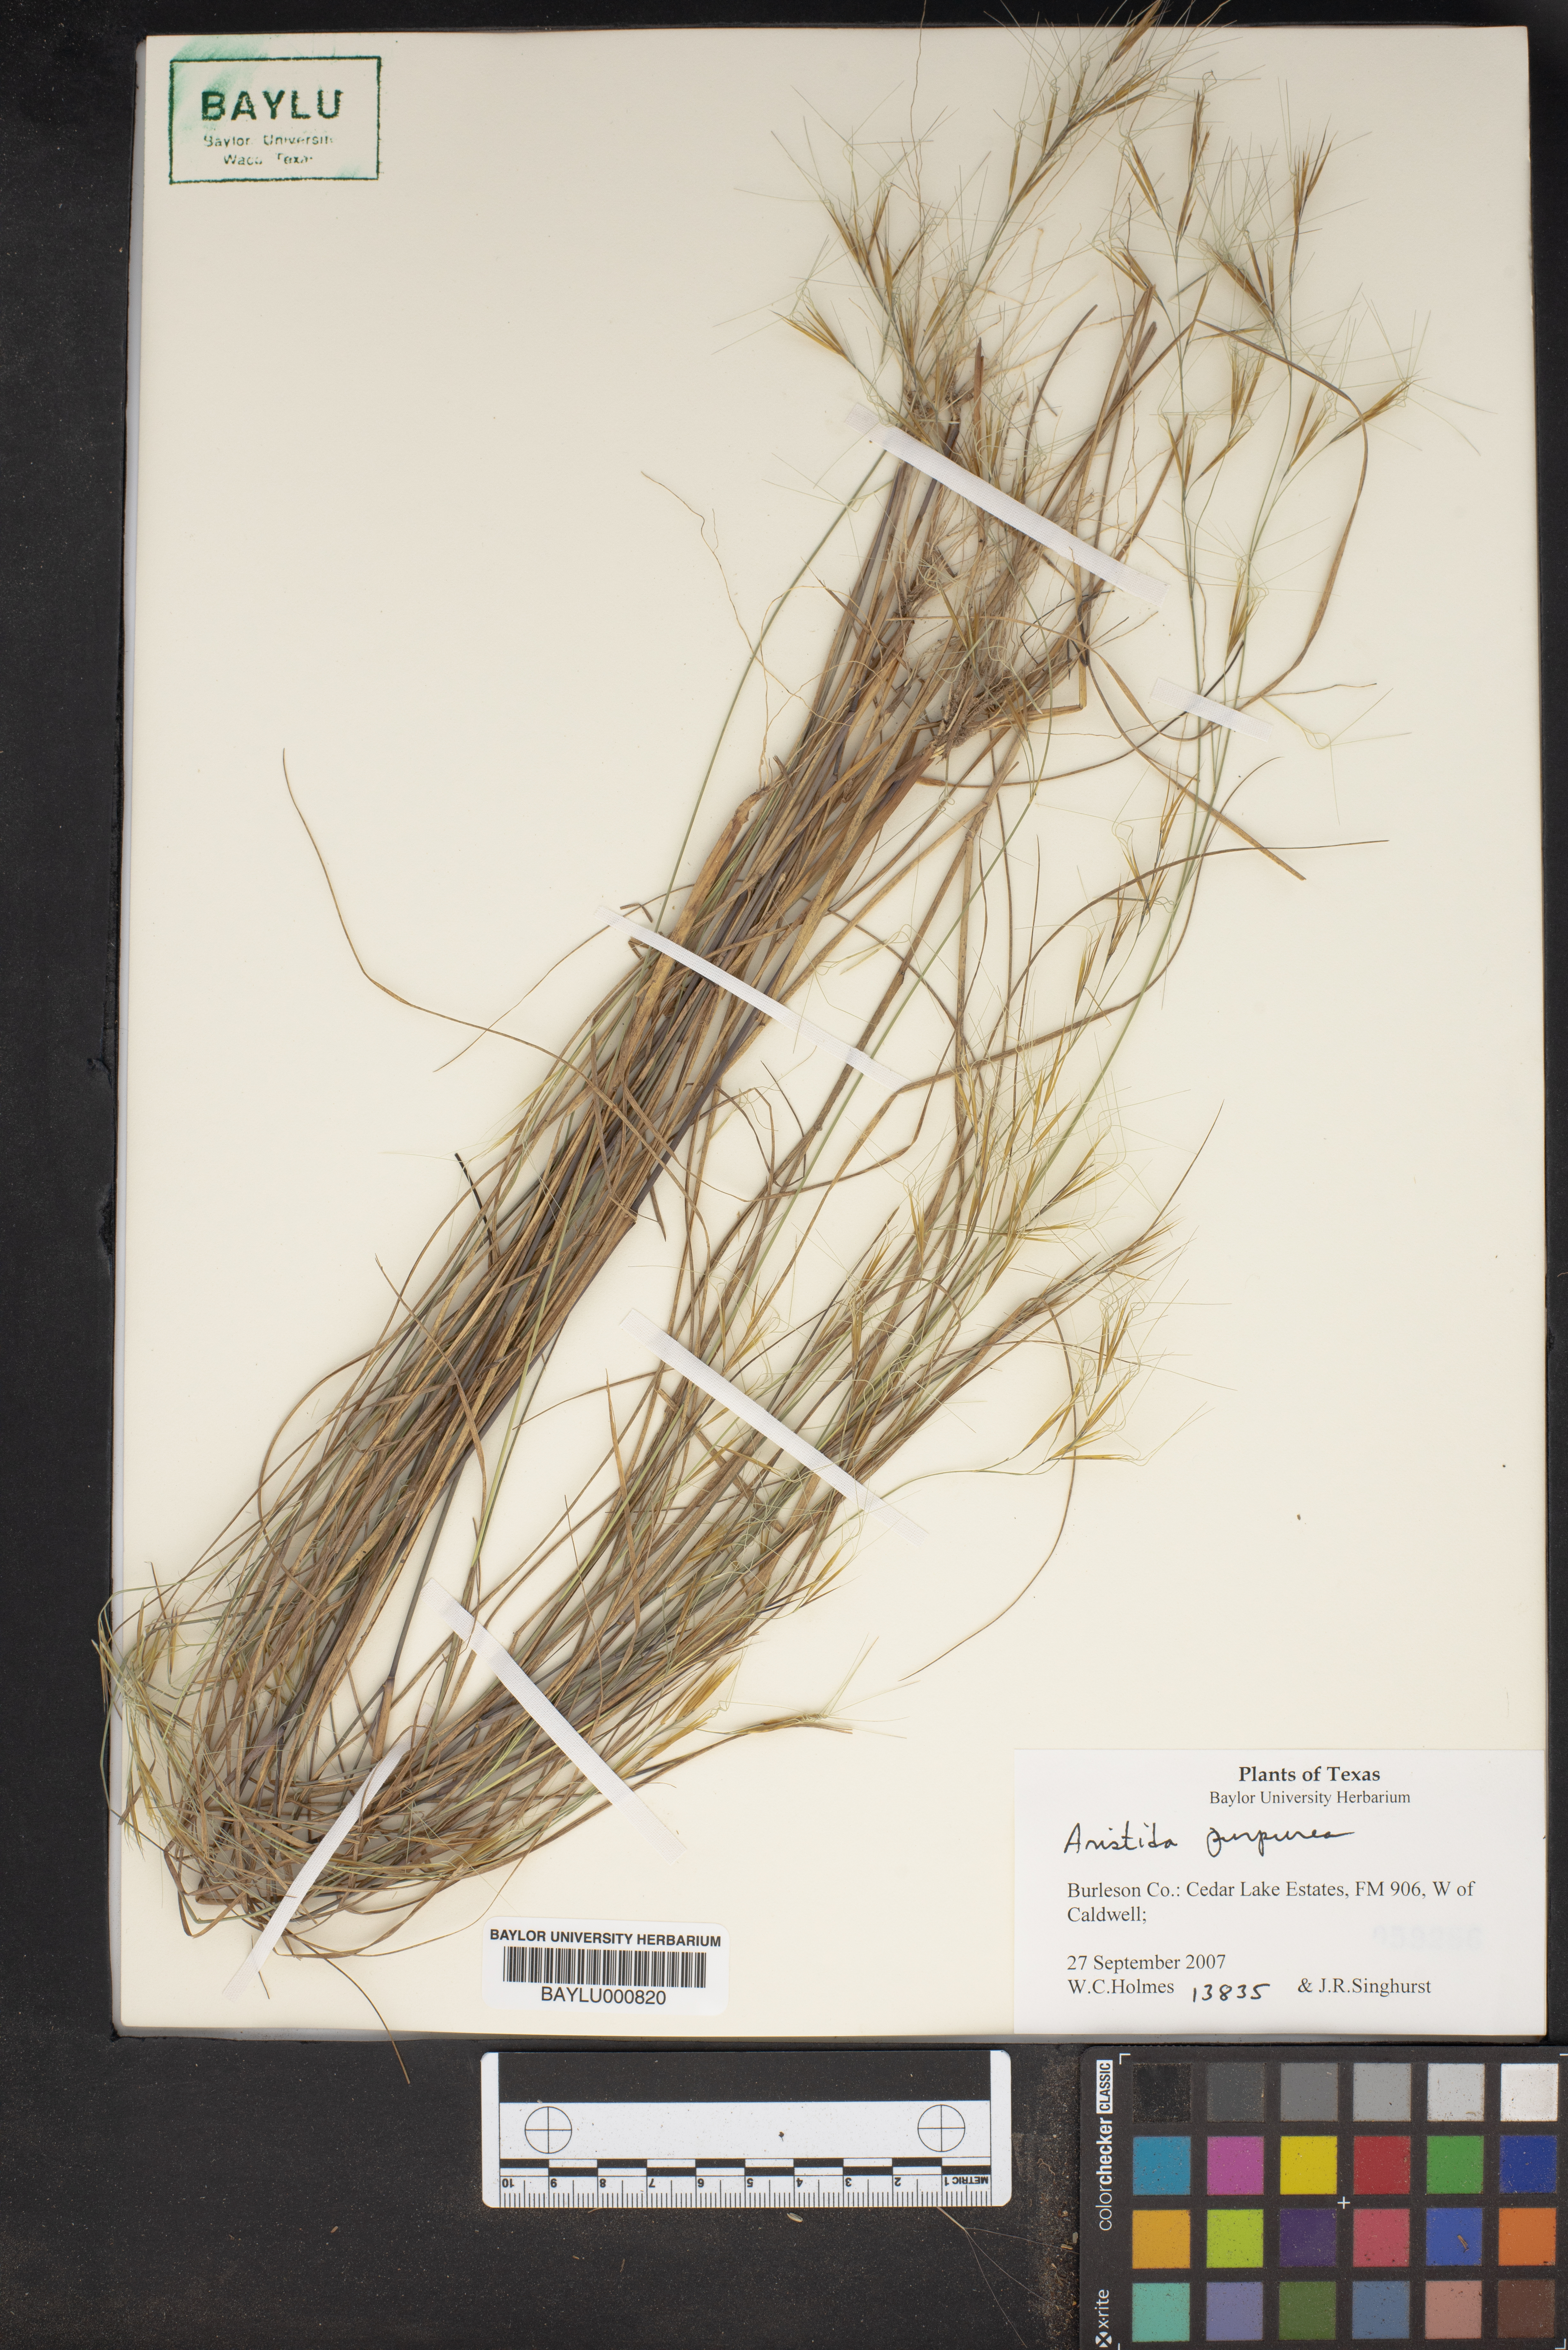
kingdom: Plantae
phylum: Tracheophyta
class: Liliopsida
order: Poales
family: Poaceae
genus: Aristida
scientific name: Aristida purpurea
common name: Purple threeawn
